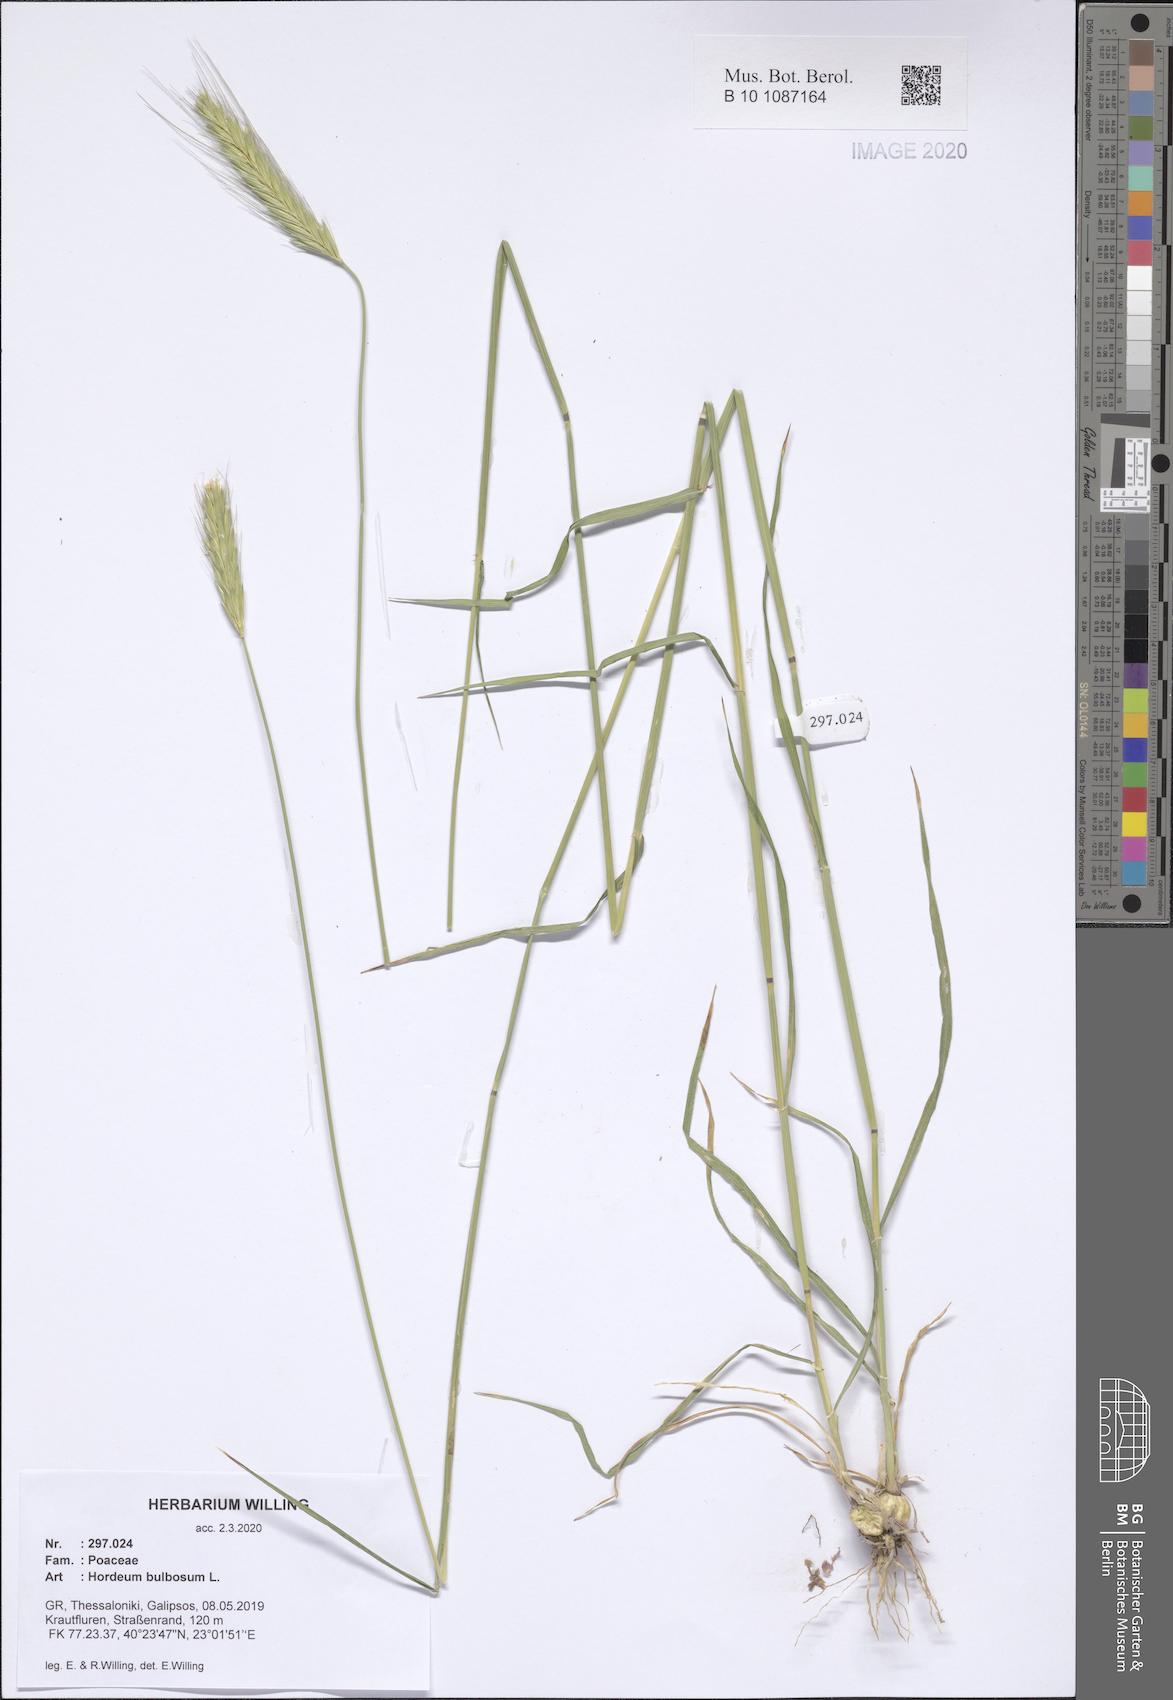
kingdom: Plantae
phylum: Tracheophyta
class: Liliopsida
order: Poales
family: Poaceae
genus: Hordeum
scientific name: Hordeum bulbosum
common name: Bulbous barley
